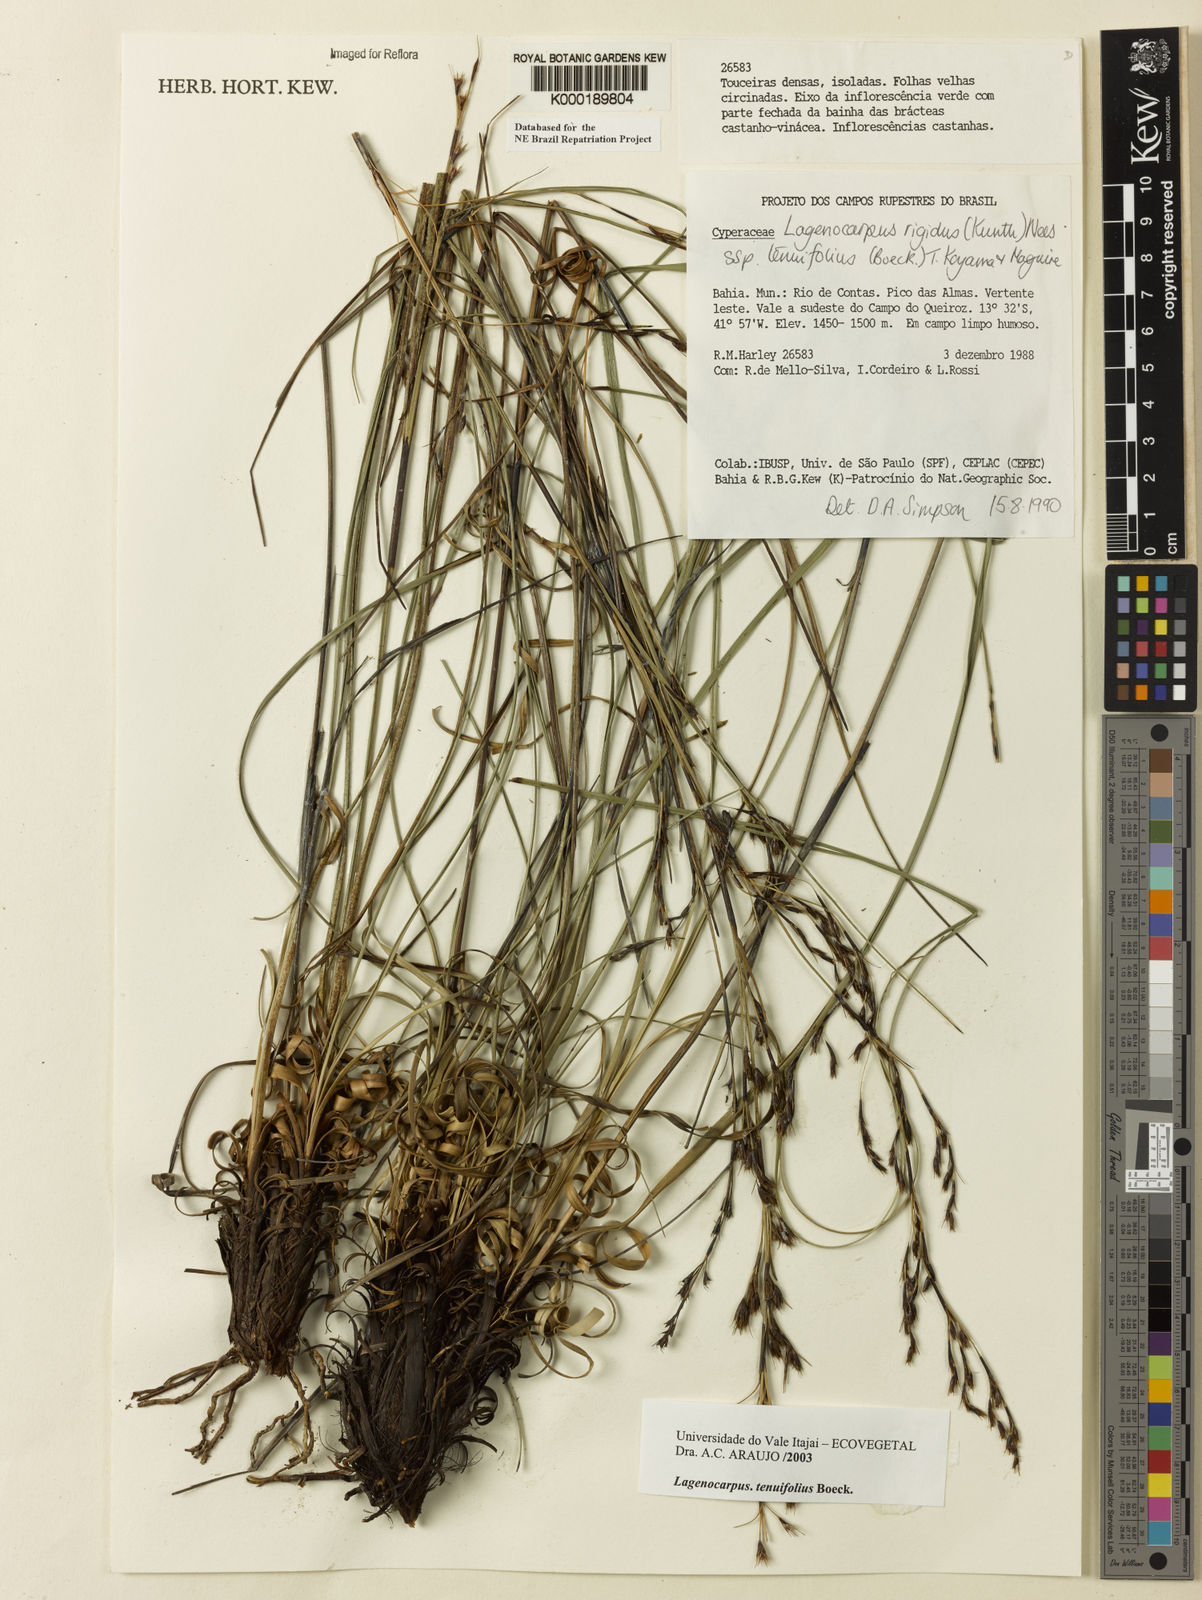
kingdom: Plantae
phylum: Tracheophyta
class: Liliopsida
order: Poales
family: Cyperaceae
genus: Lagenocarpus
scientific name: Lagenocarpus rigidus
